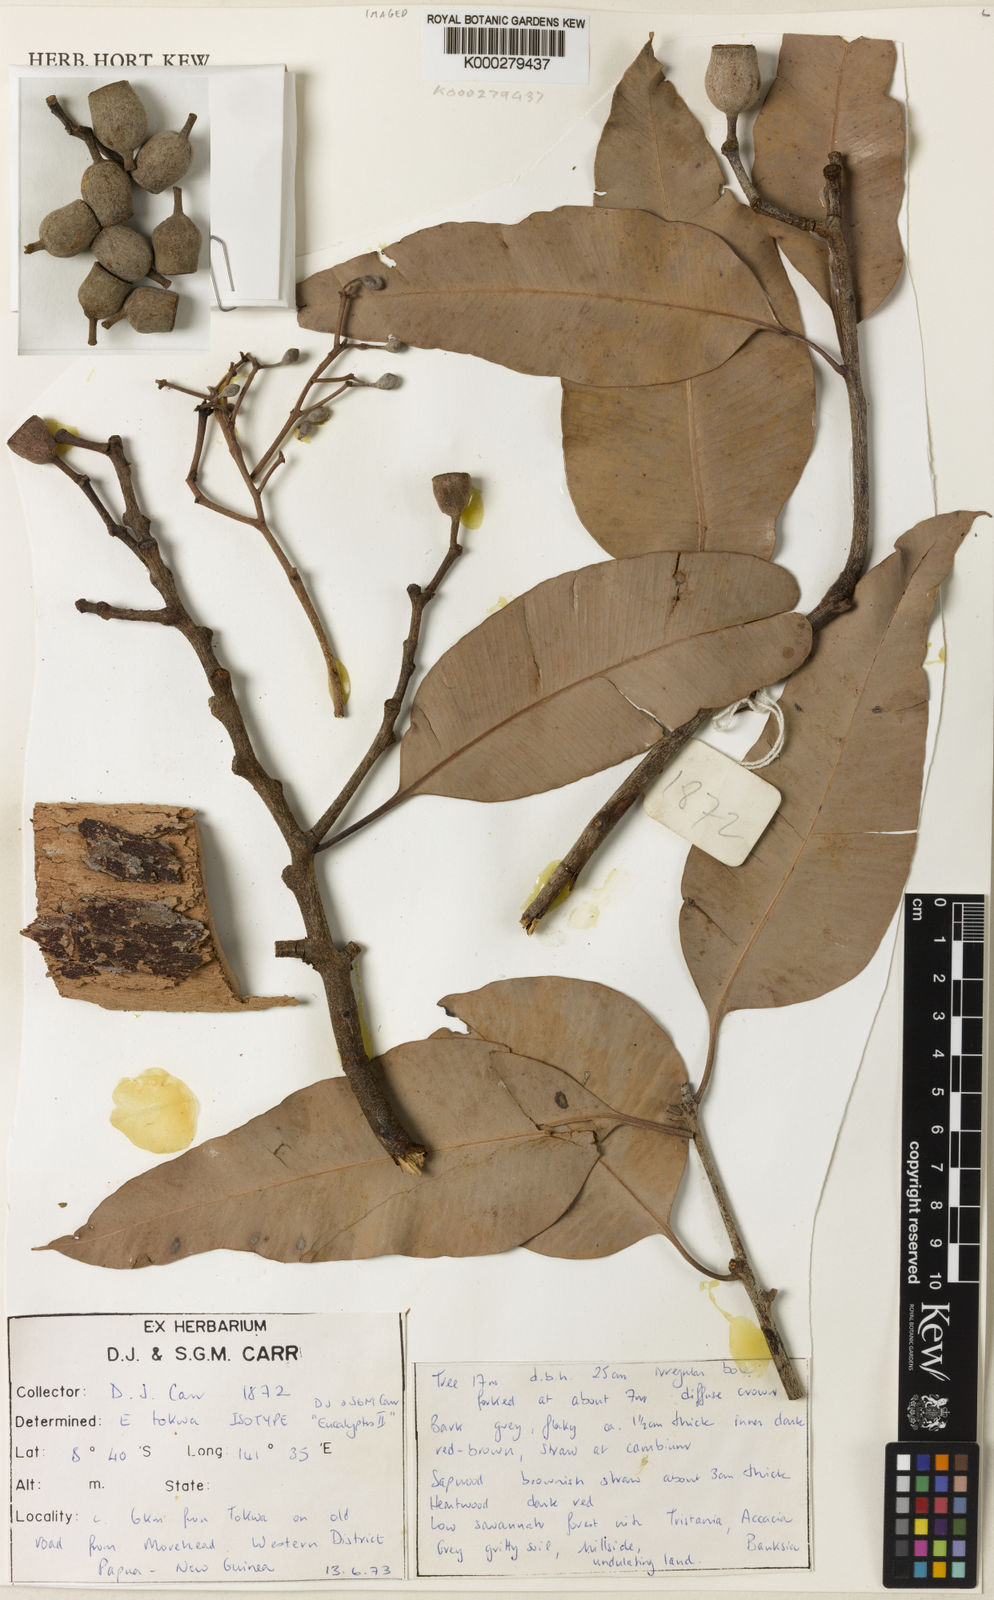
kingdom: Plantae
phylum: Tracheophyta
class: Magnoliopsida
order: Myrtales
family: Myrtaceae
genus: Eucalyptus
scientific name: Eucalyptus tokwa
